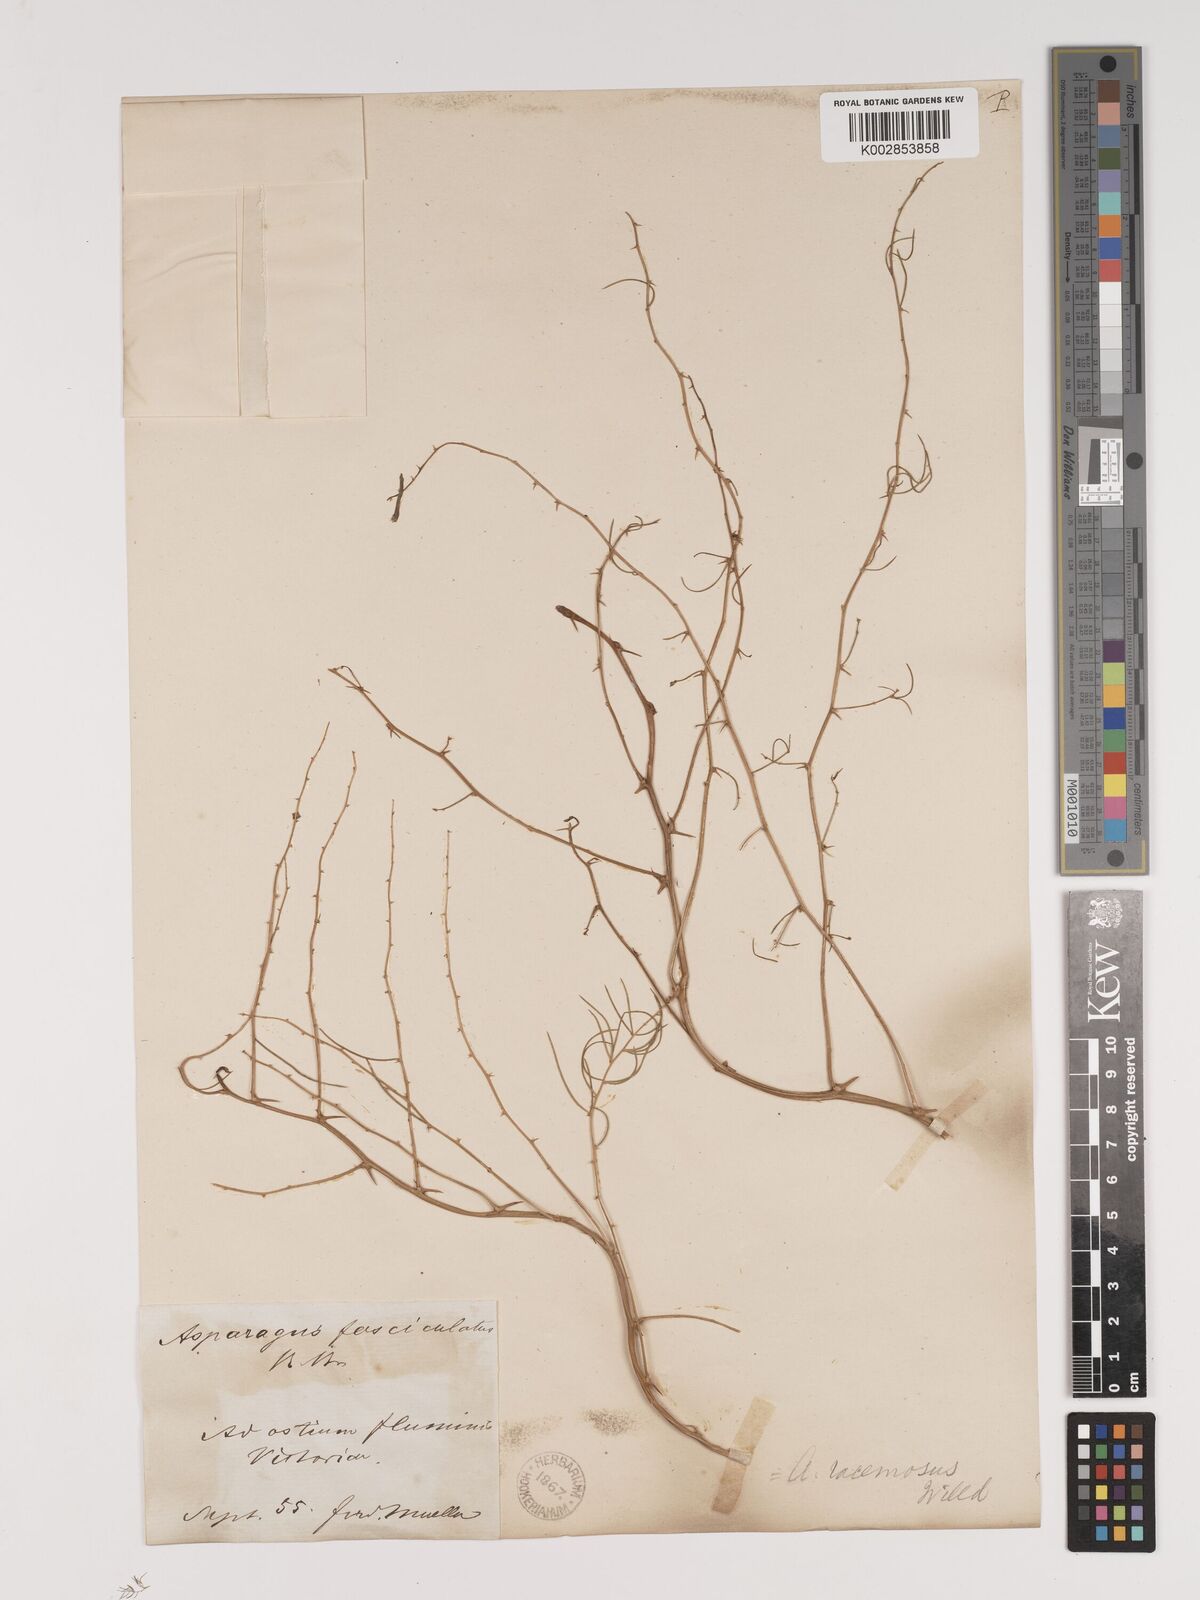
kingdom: Plantae
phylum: Tracheophyta
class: Liliopsida
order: Asparagales
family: Asparagaceae
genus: Asparagus
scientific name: Asparagus racemosus
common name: Asparagus-fern
